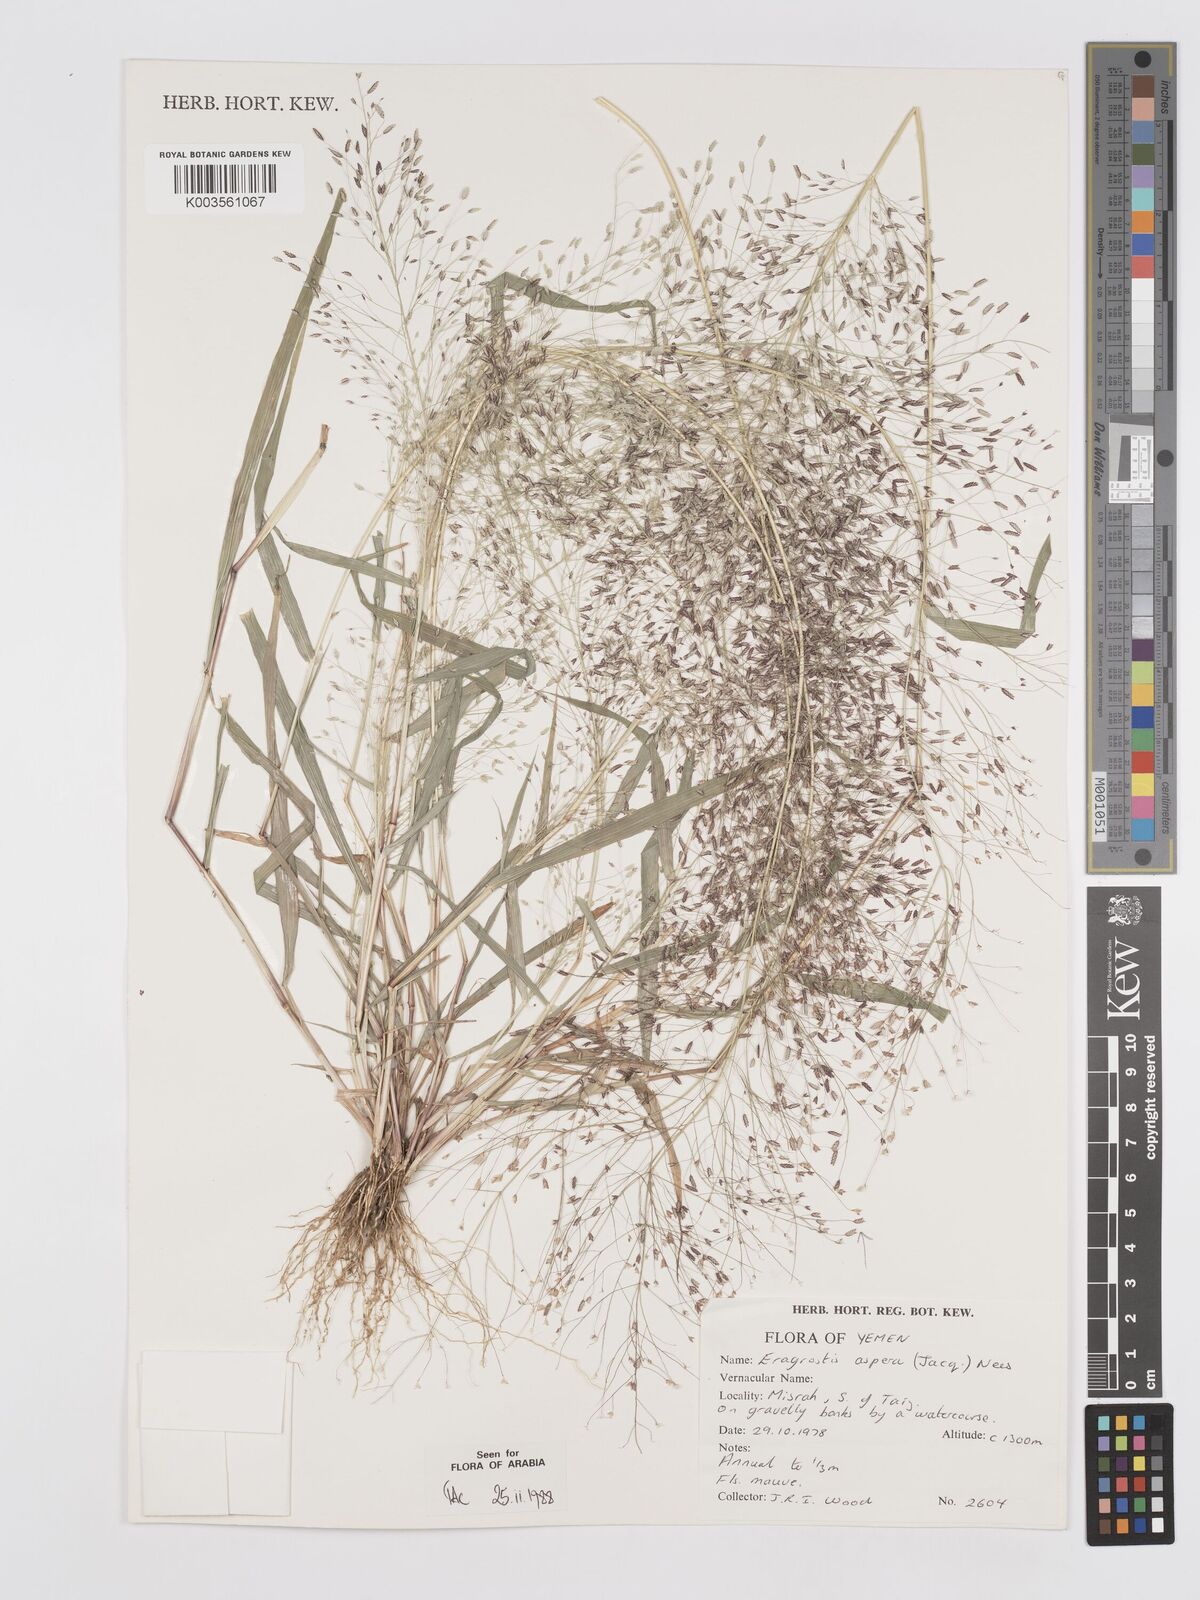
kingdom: Plantae
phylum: Tracheophyta
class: Liliopsida
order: Poales
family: Poaceae
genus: Eragrostis
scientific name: Eragrostis aspera
